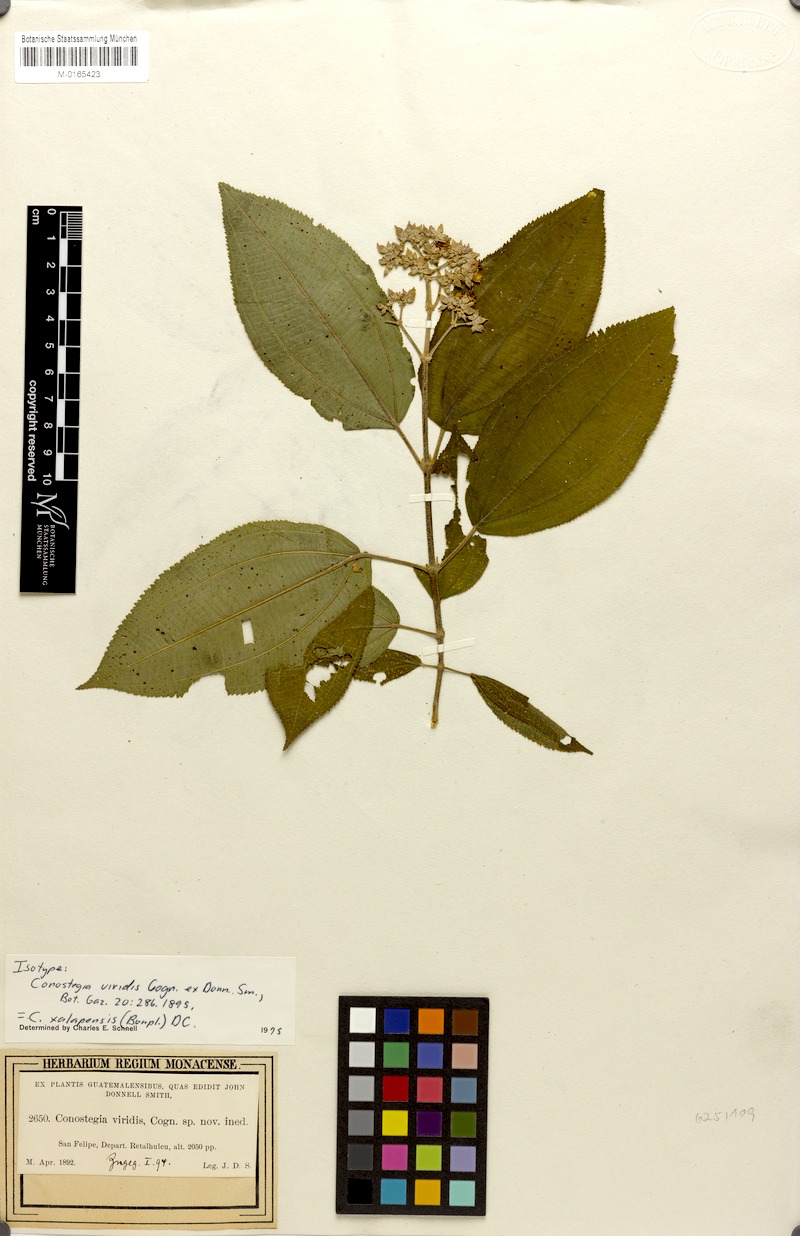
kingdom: Plantae
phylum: Tracheophyta
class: Magnoliopsida
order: Myrtales
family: Melastomataceae
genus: Miconia
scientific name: Miconia xalapensis
